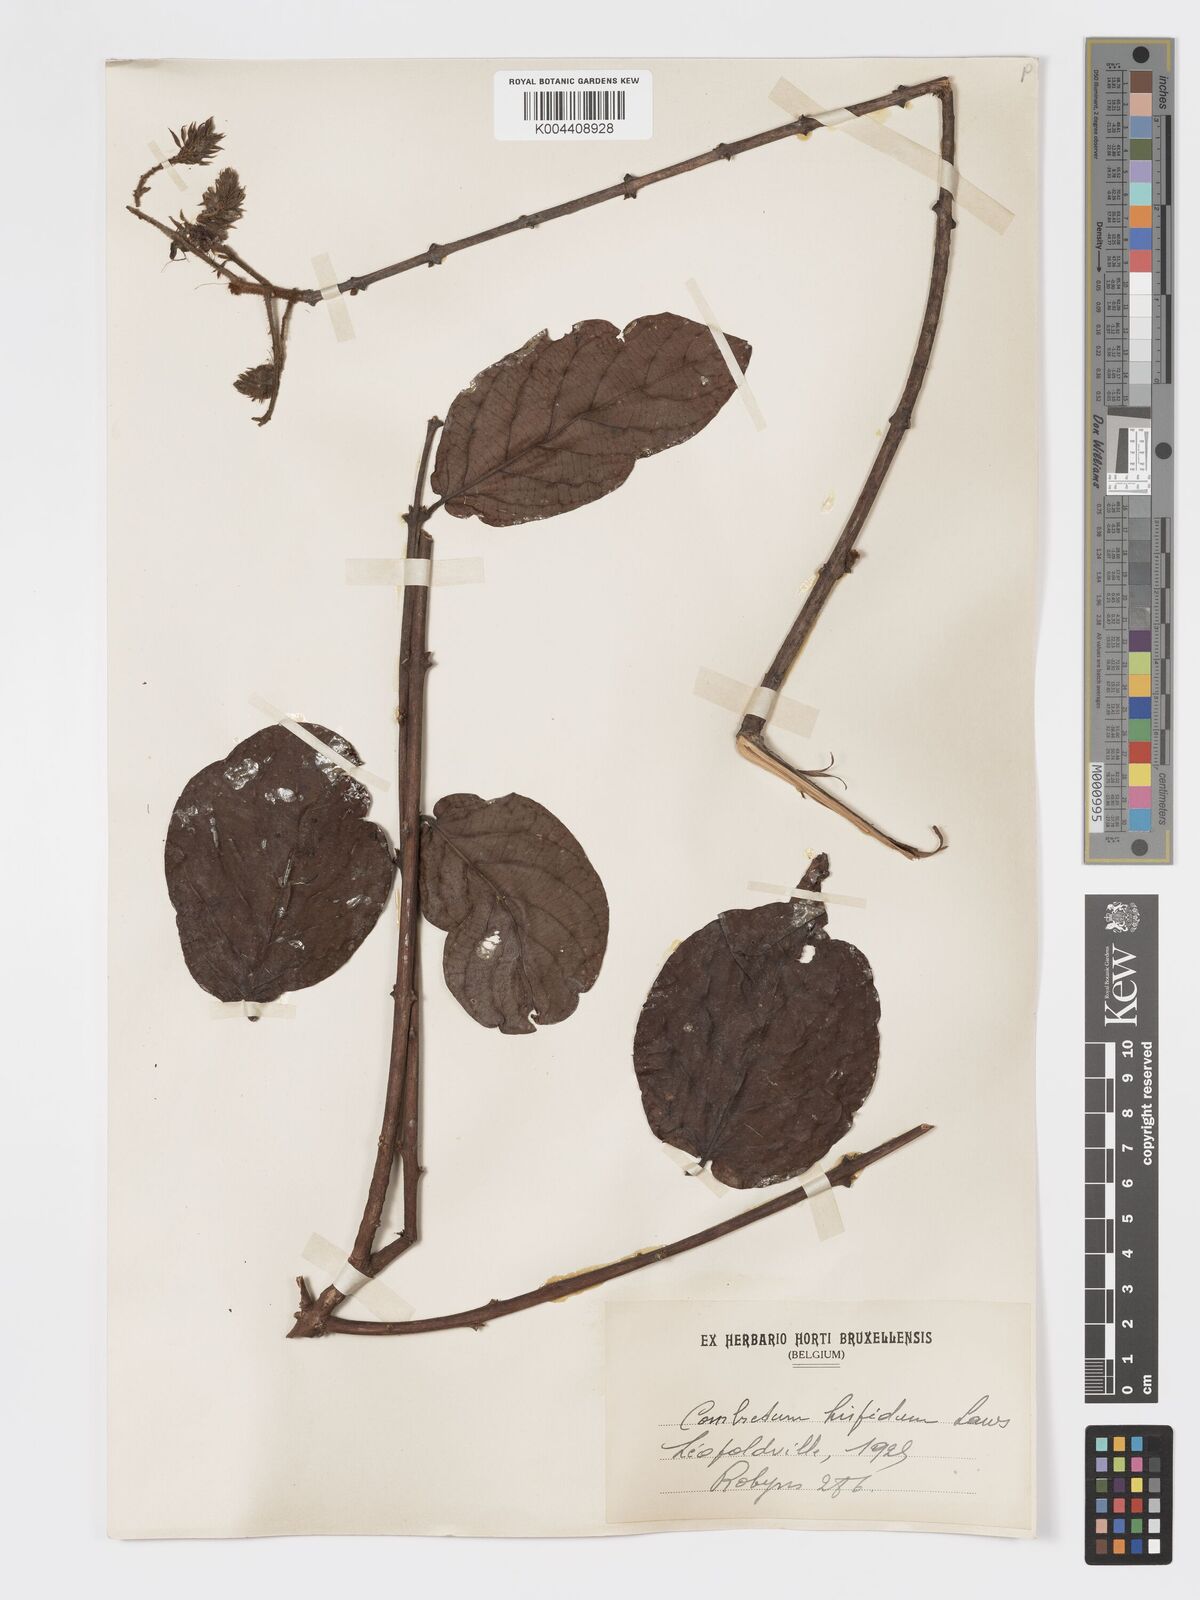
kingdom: Plantae
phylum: Tracheophyta
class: Magnoliopsida
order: Myrtales
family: Combretaceae
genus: Combretum
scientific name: Combretum comosum
